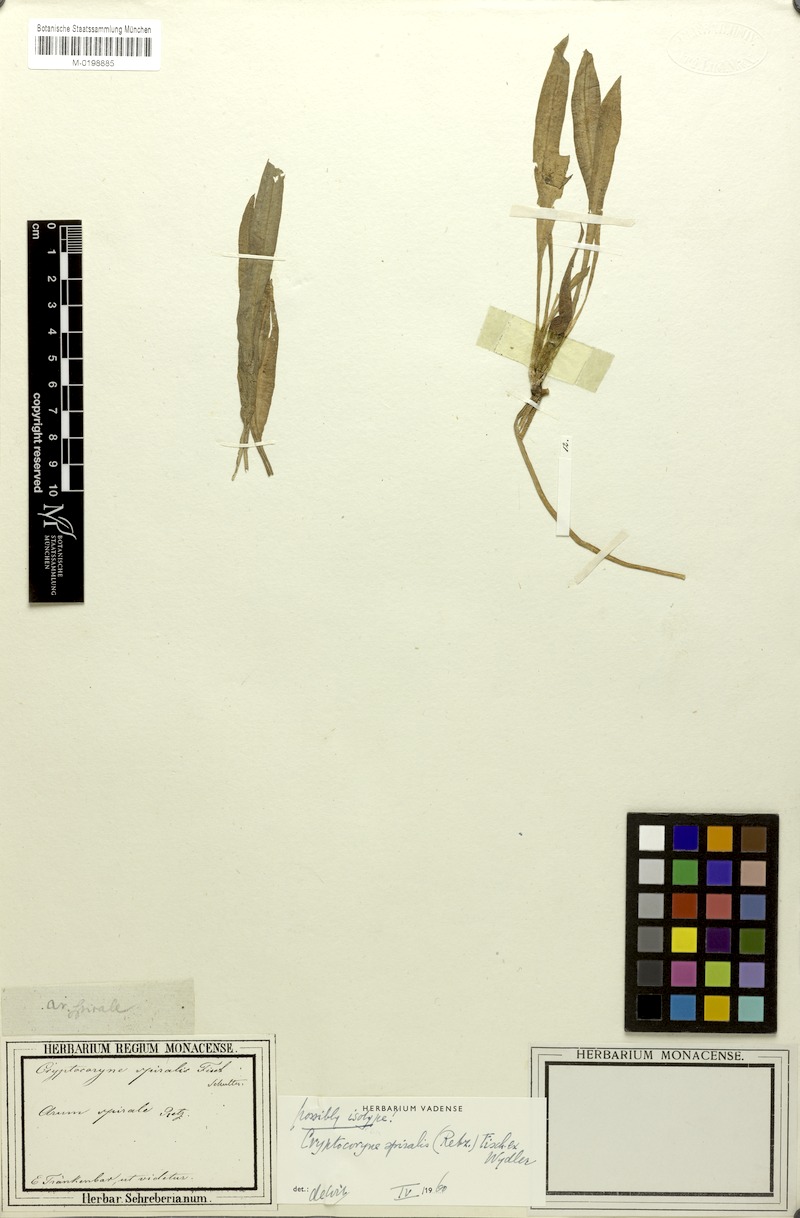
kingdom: Plantae
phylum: Tracheophyta
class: Liliopsida
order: Alismatales
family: Araceae
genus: Cryptocoryne
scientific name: Cryptocoryne spiralis
